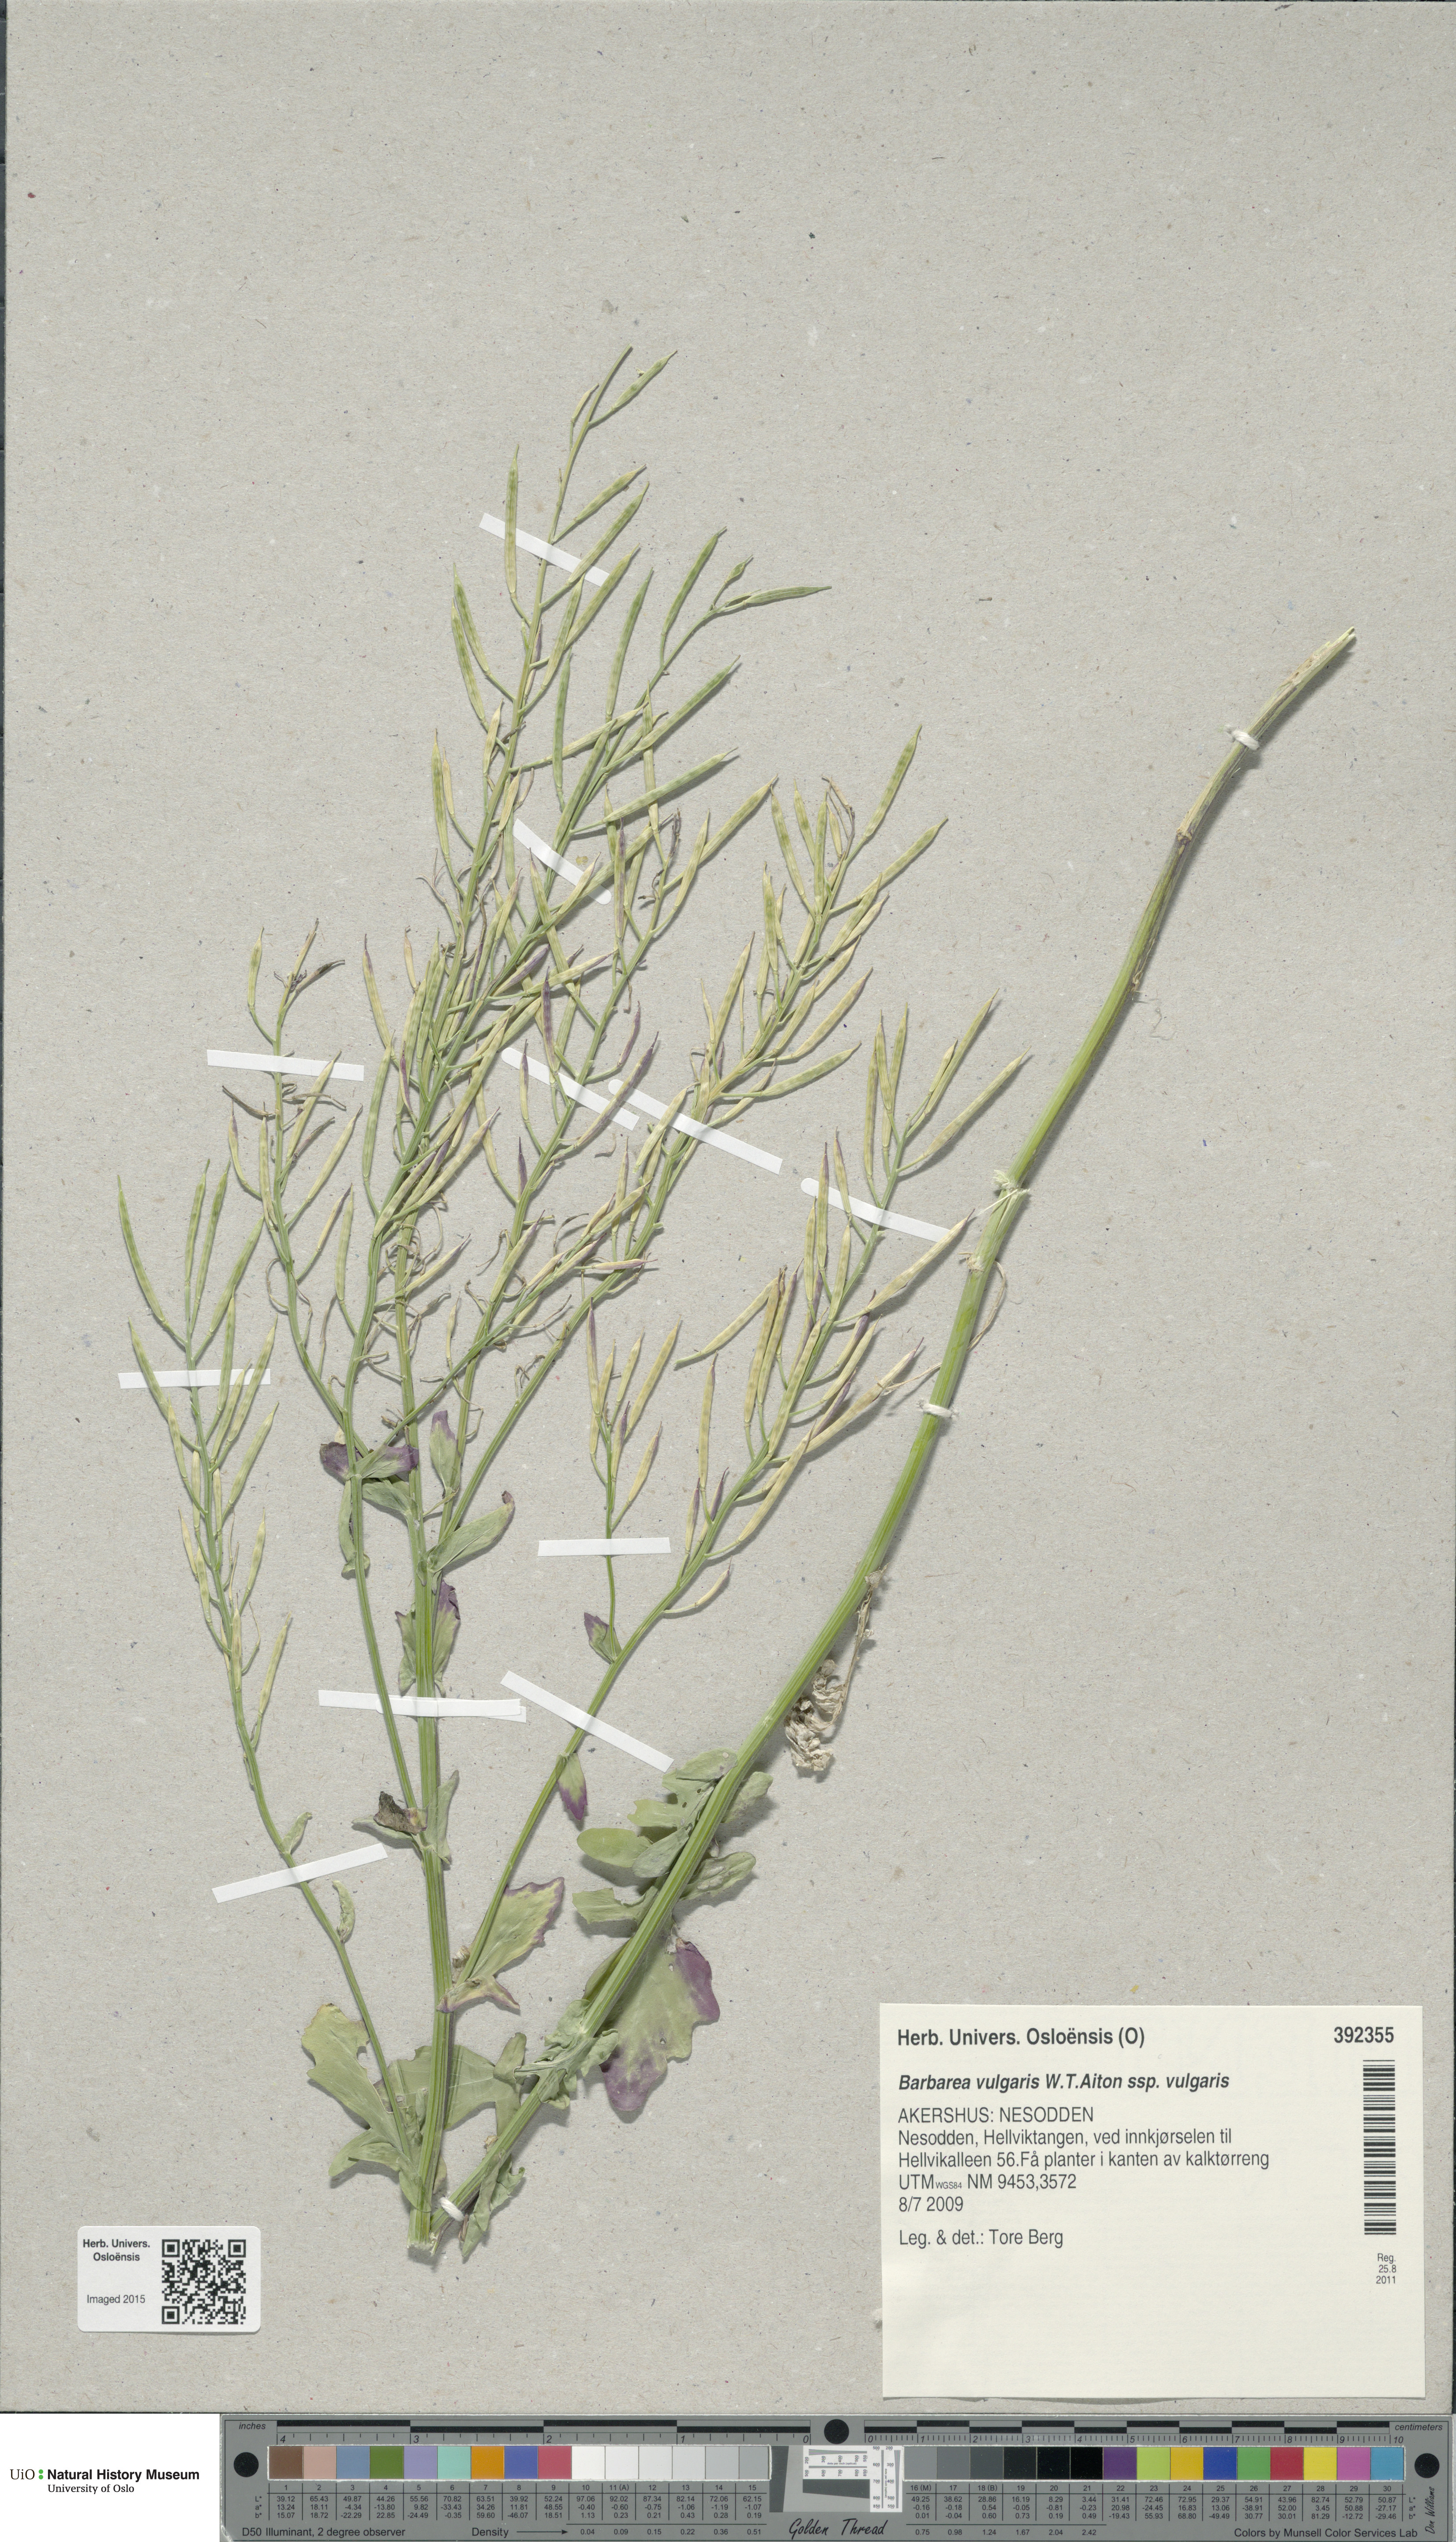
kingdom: Plantae
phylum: Tracheophyta
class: Magnoliopsida
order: Brassicales
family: Brassicaceae
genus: Barbarea
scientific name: Barbarea vulgaris
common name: Cressy-greens
